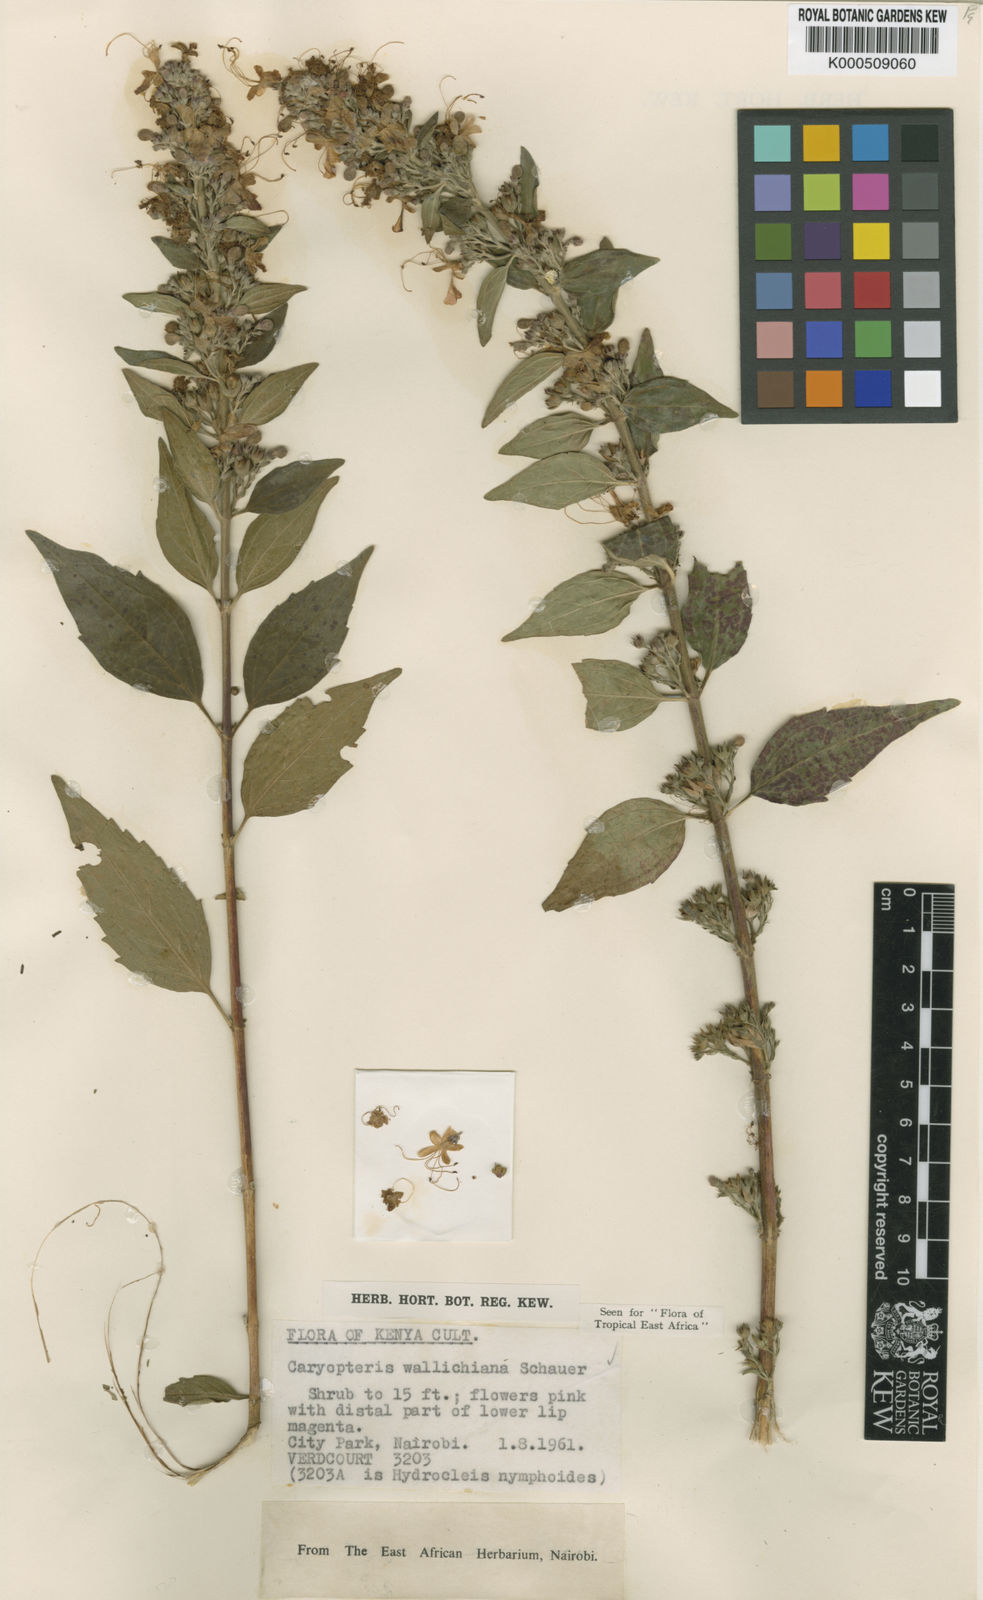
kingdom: Plantae
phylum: Tracheophyta
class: Magnoliopsida
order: Lamiales
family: Lamiaceae
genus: Pseudocaryopteris
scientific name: Pseudocaryopteris bicolor
